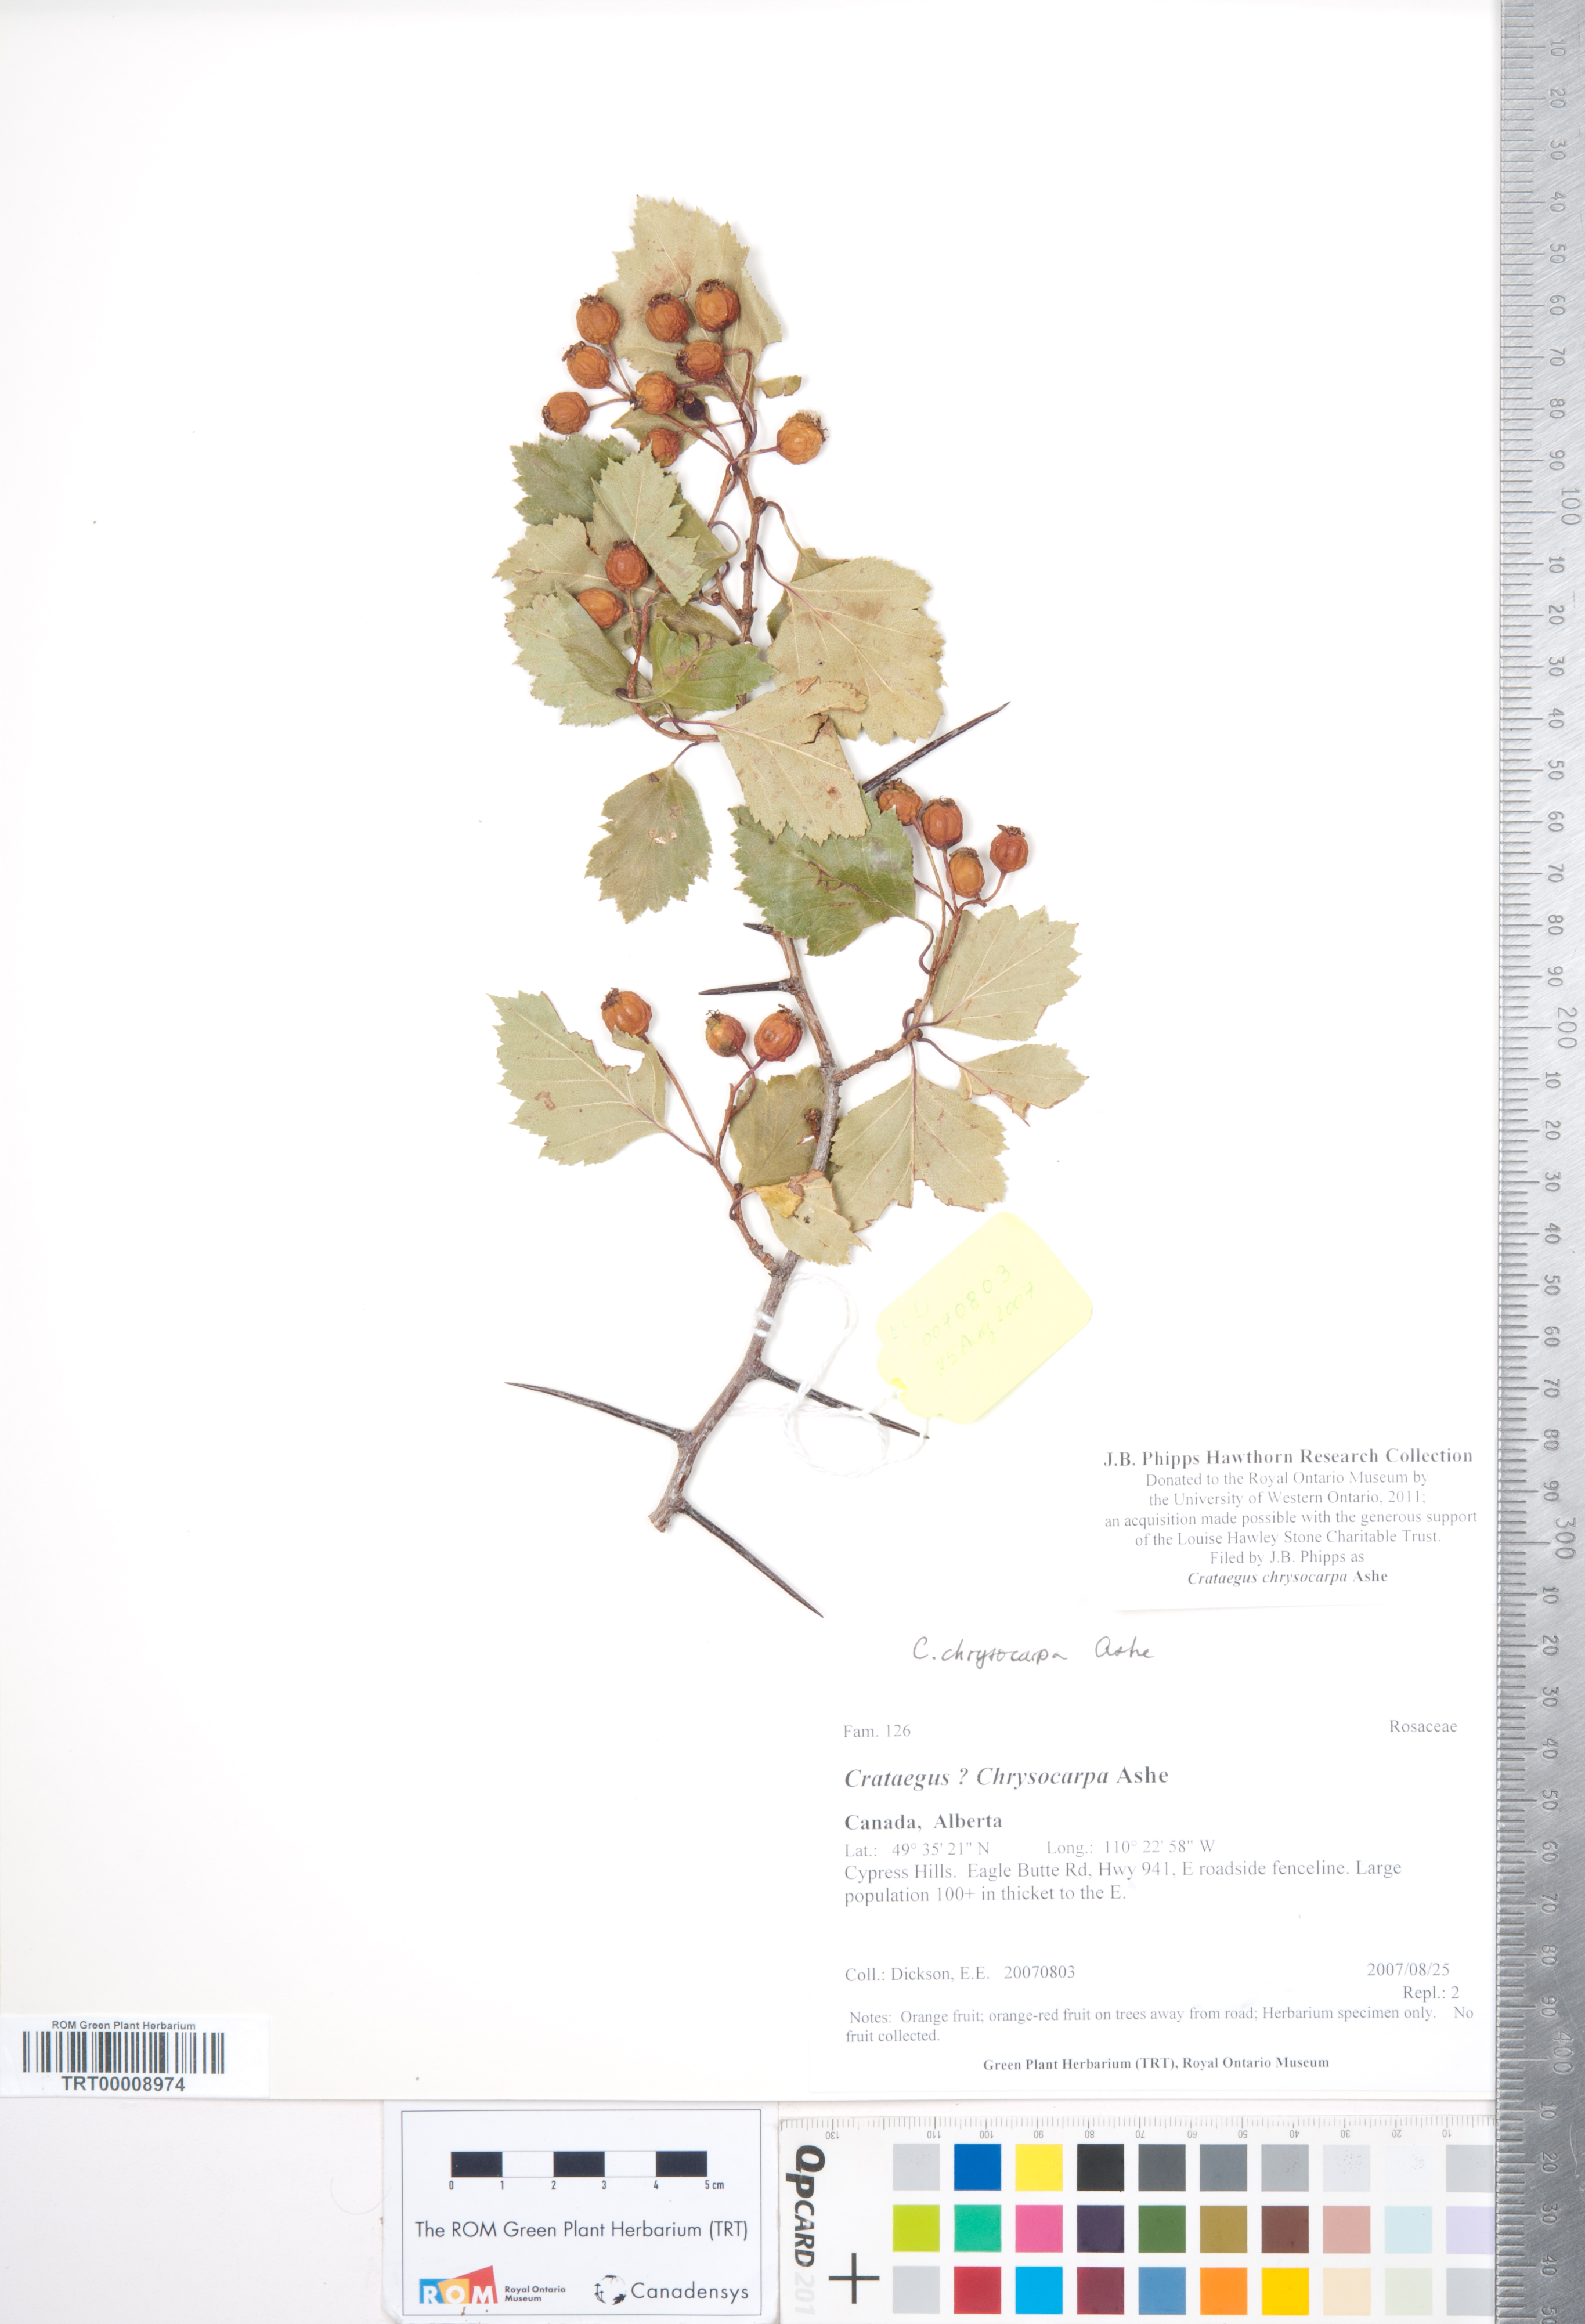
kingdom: Plantae
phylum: Tracheophyta
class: Magnoliopsida
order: Rosales
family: Rosaceae
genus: Crataegus
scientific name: Crataegus chrysocarpa
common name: Fire-berry hawthorn
